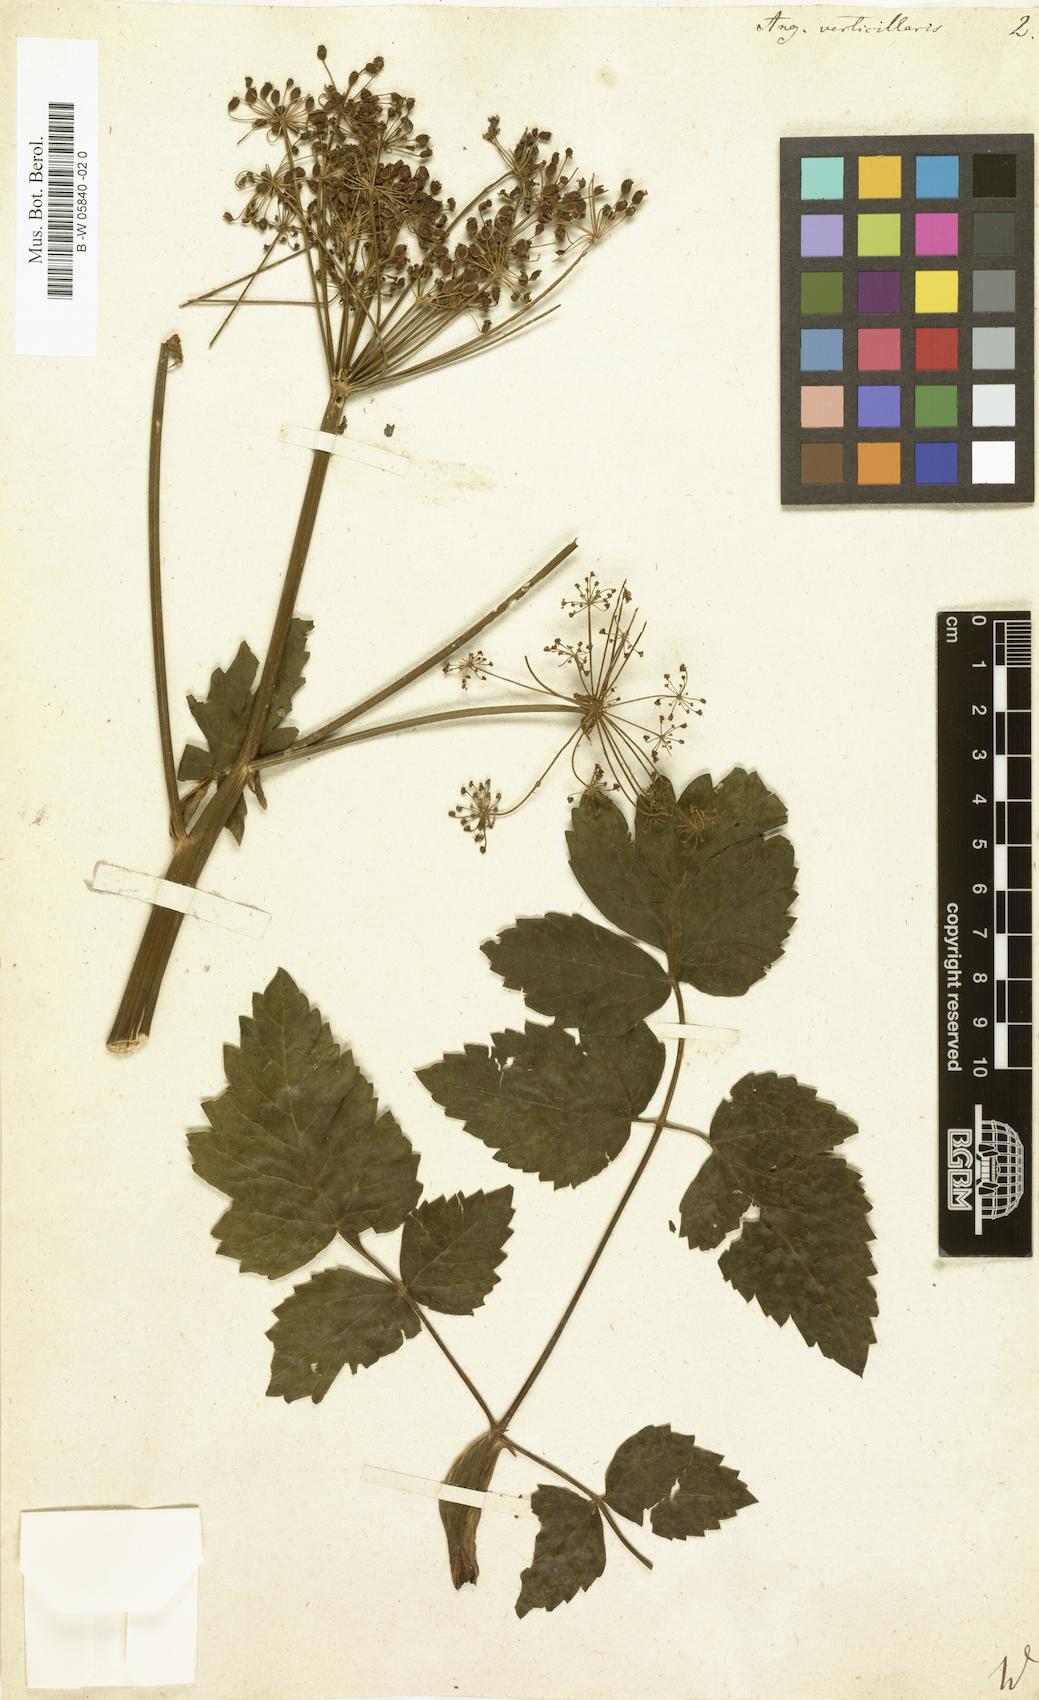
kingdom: Plantae
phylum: Tracheophyta
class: Magnoliopsida
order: Apiales
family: Apiaceae
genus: Tommasinia
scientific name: Tommasinia altissima
